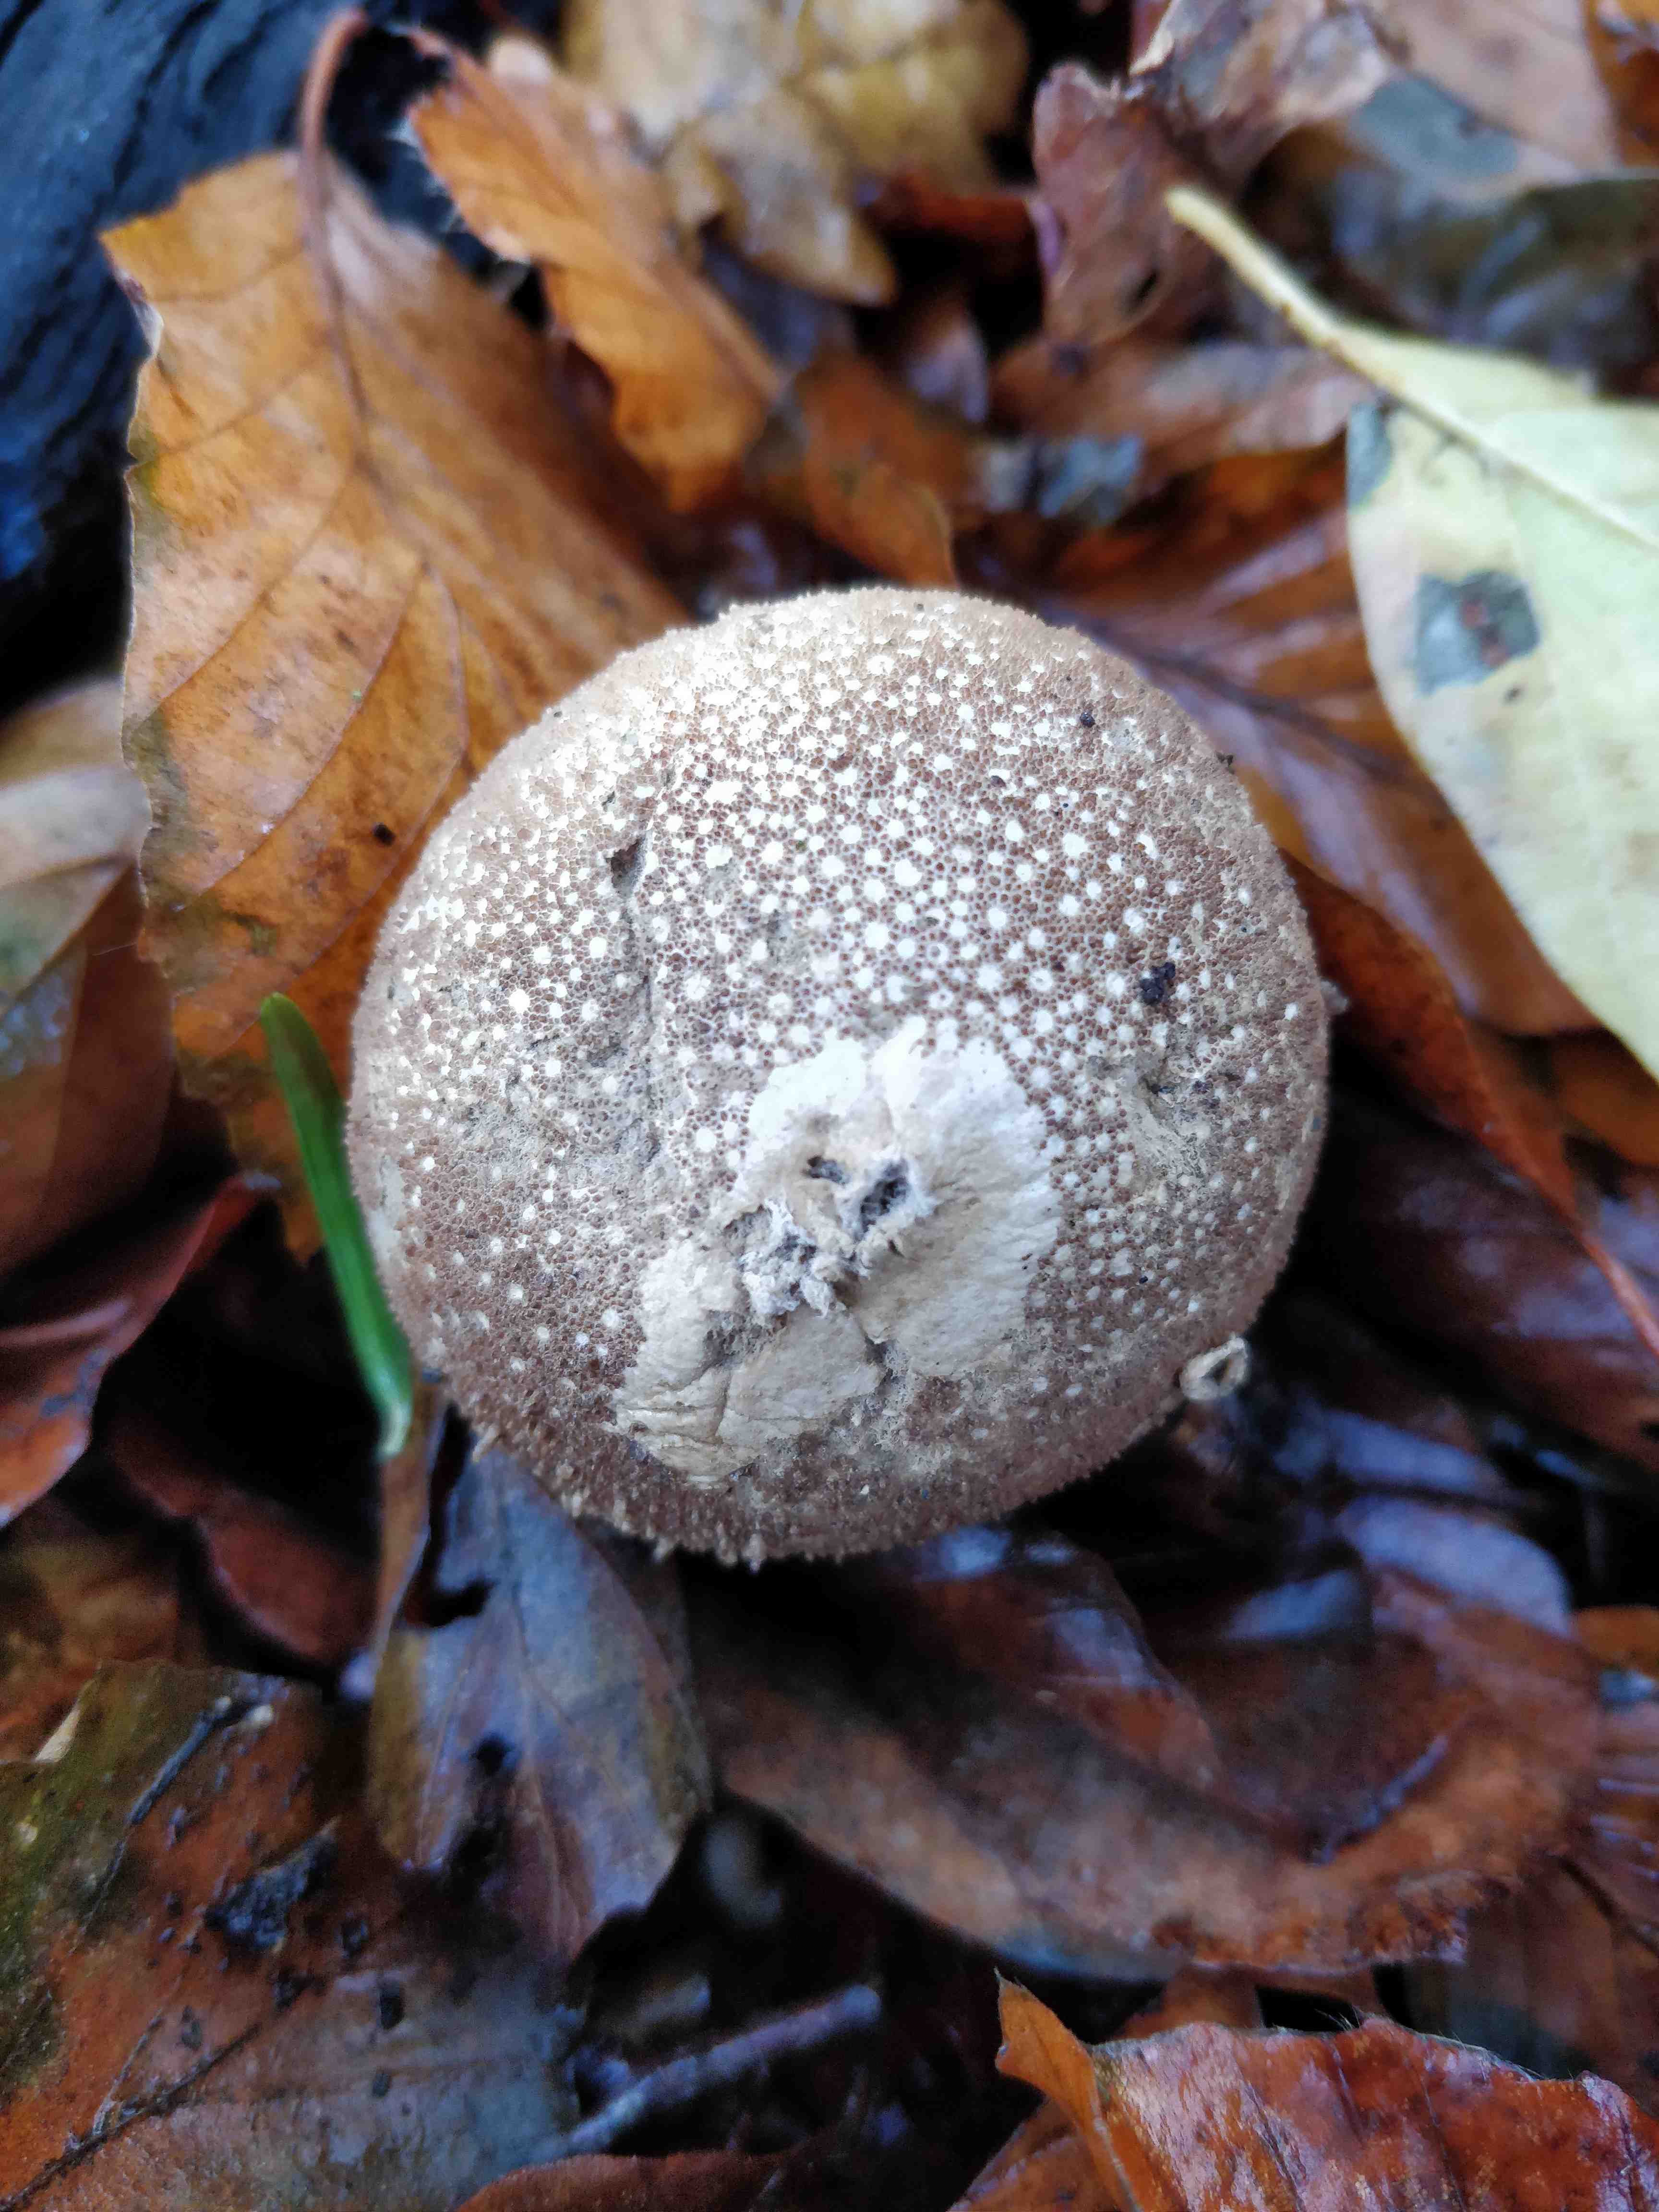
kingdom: Fungi
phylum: Basidiomycota
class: Agaricomycetes
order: Agaricales
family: Lycoperdaceae
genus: Lycoperdon
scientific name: Lycoperdon perlatum
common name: krystal-støvbold
